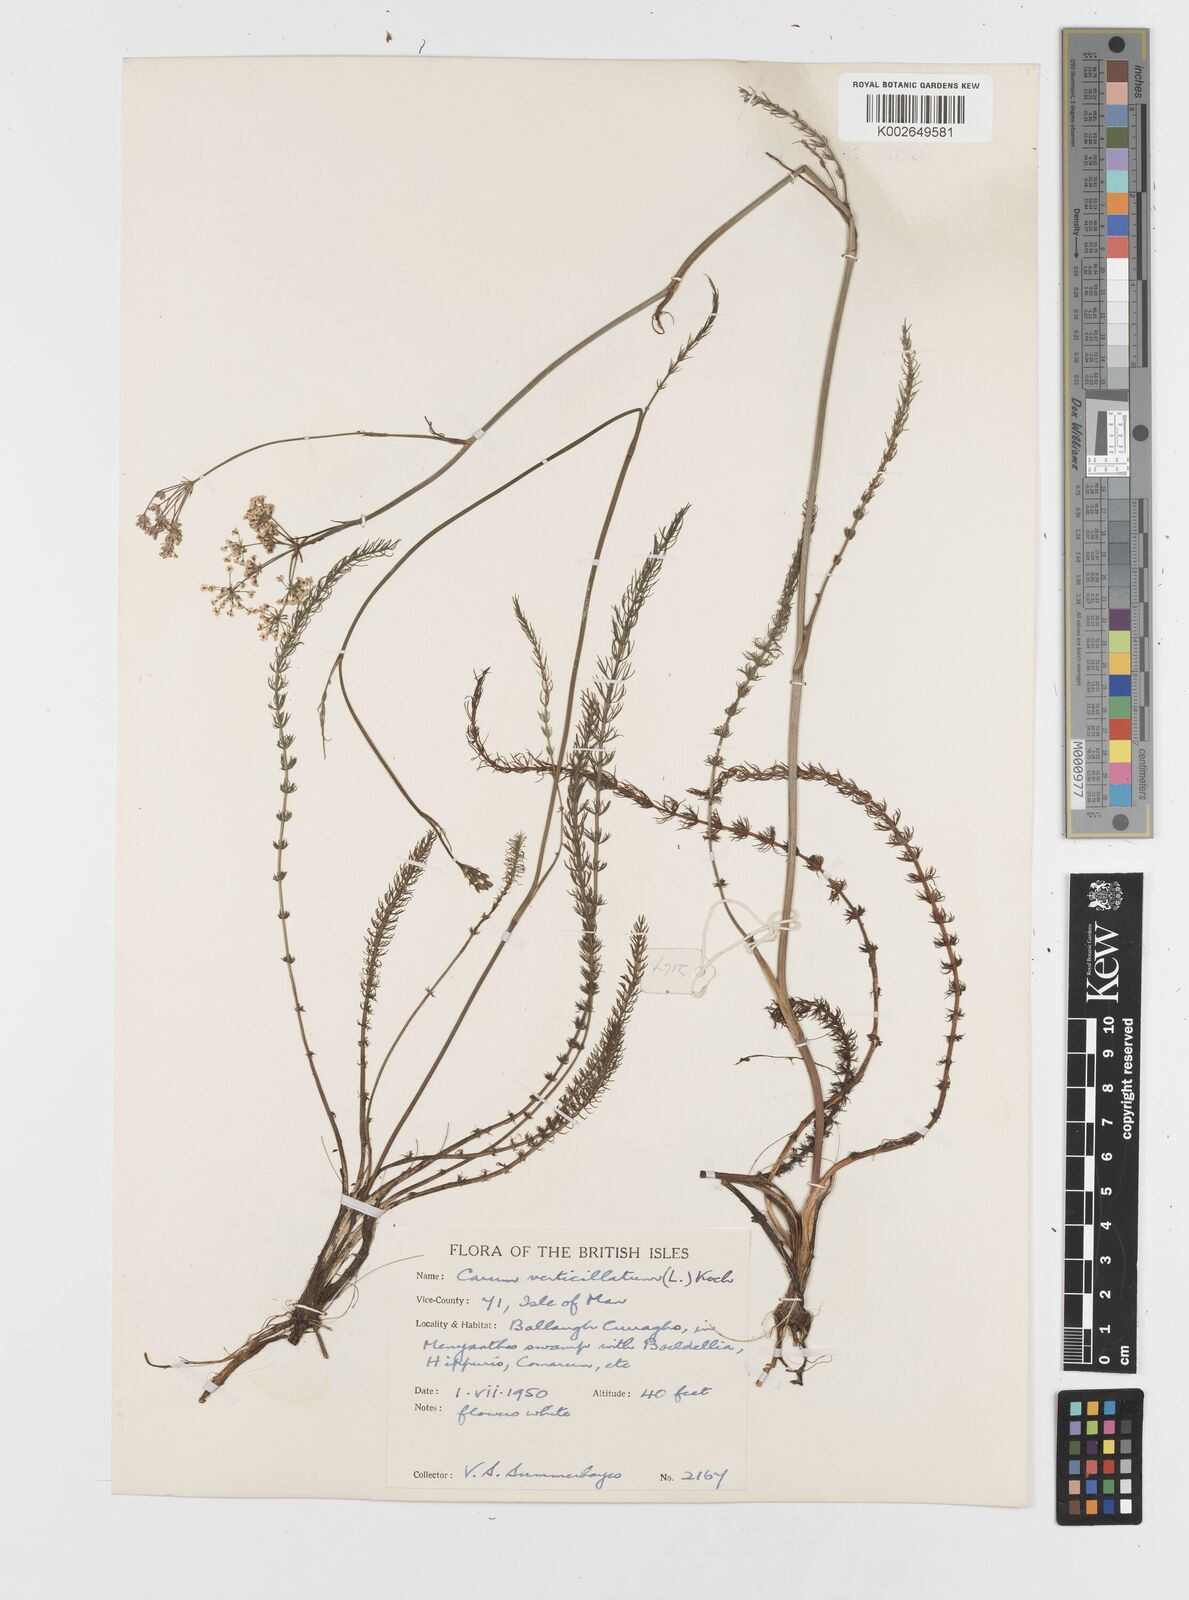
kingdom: Plantae
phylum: Tracheophyta
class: Magnoliopsida
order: Apiales
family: Apiaceae
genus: Trocdaris
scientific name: Trocdaris verticillatum
